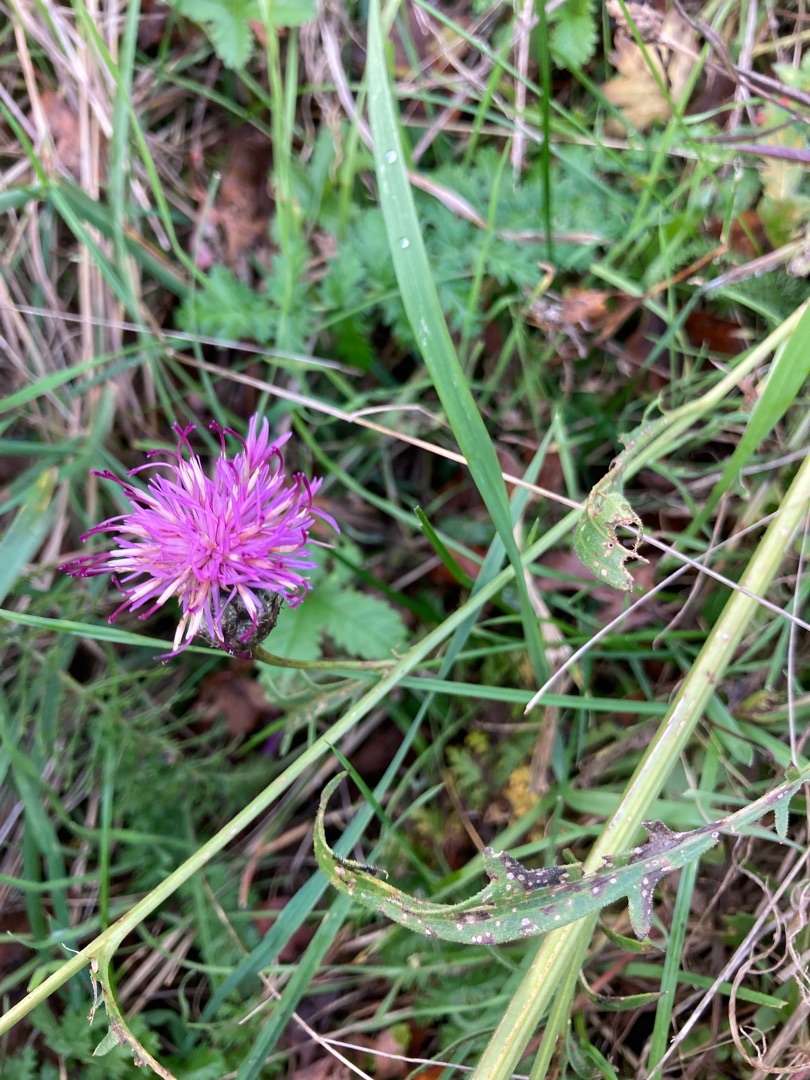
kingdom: Plantae
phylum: Tracheophyta
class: Magnoliopsida
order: Asterales
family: Asteraceae
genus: Centaurea
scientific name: Centaurea scabiosa
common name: Stor knopurt
